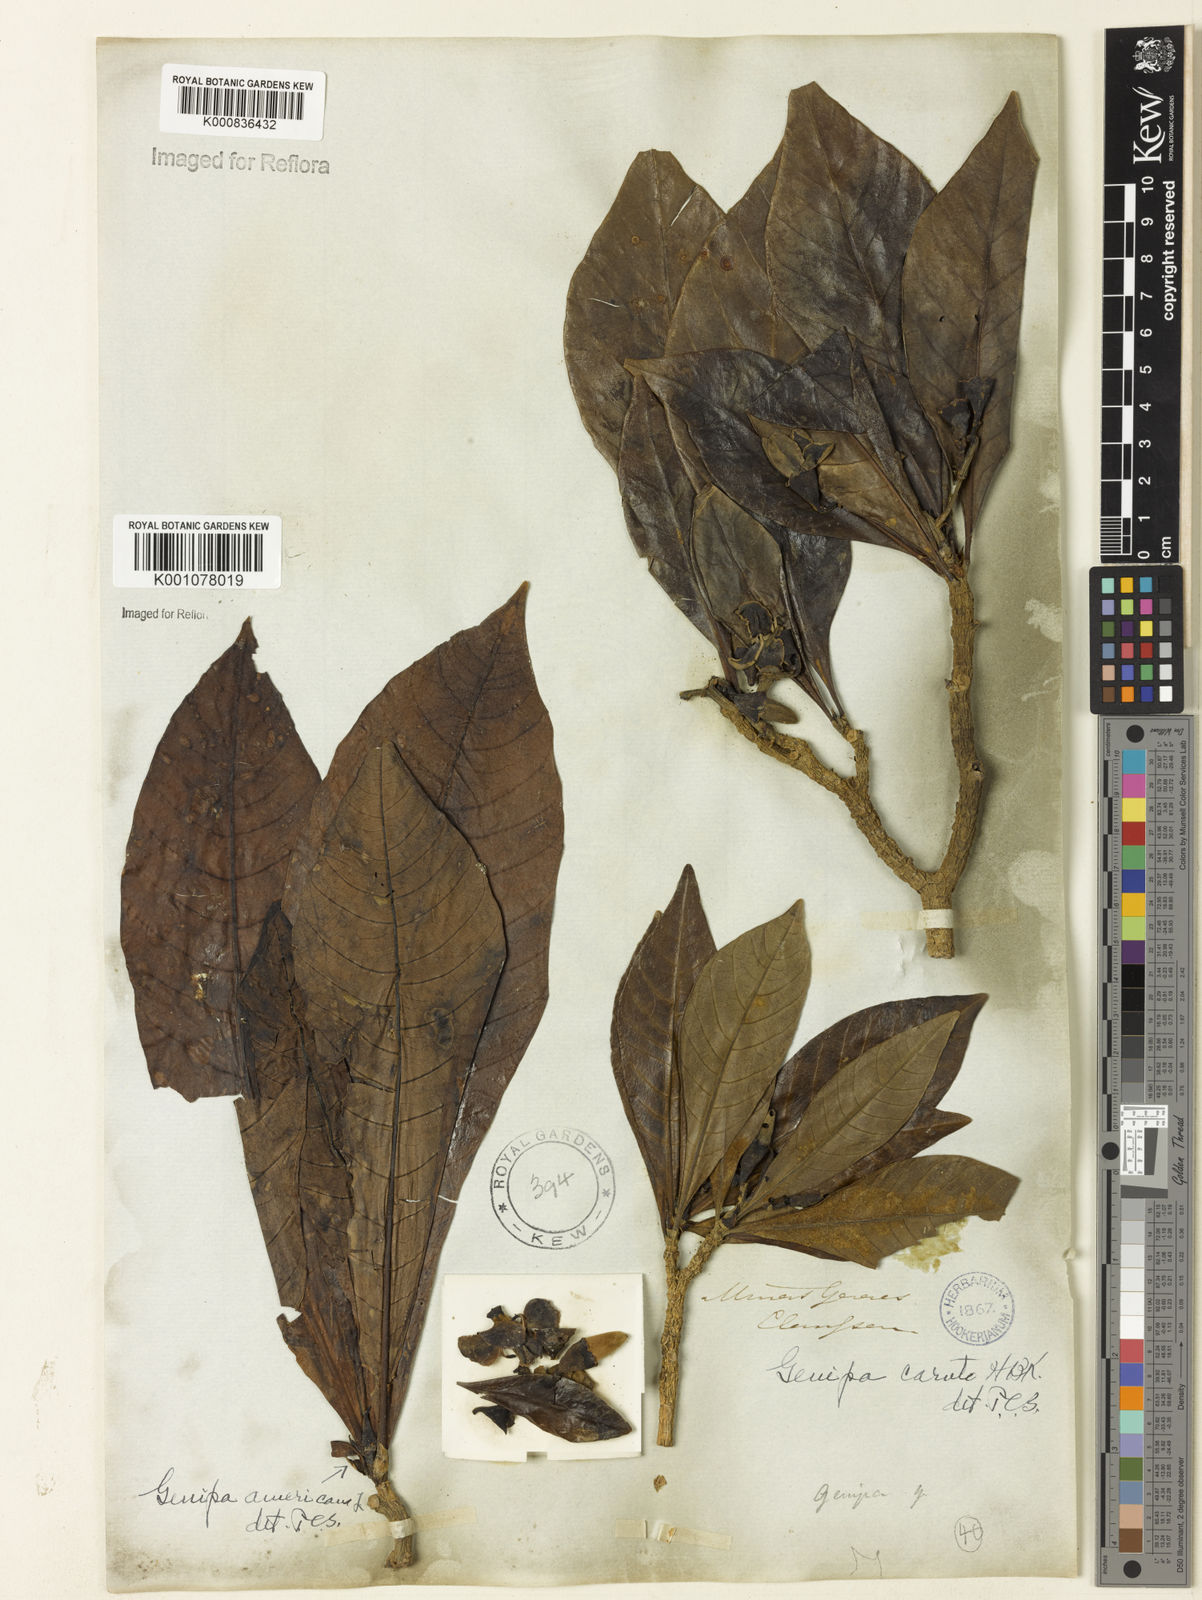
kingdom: Plantae
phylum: Tracheophyta
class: Magnoliopsida
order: Gentianales
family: Rubiaceae
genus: Genipa
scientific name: Genipa americana
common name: Genipap
